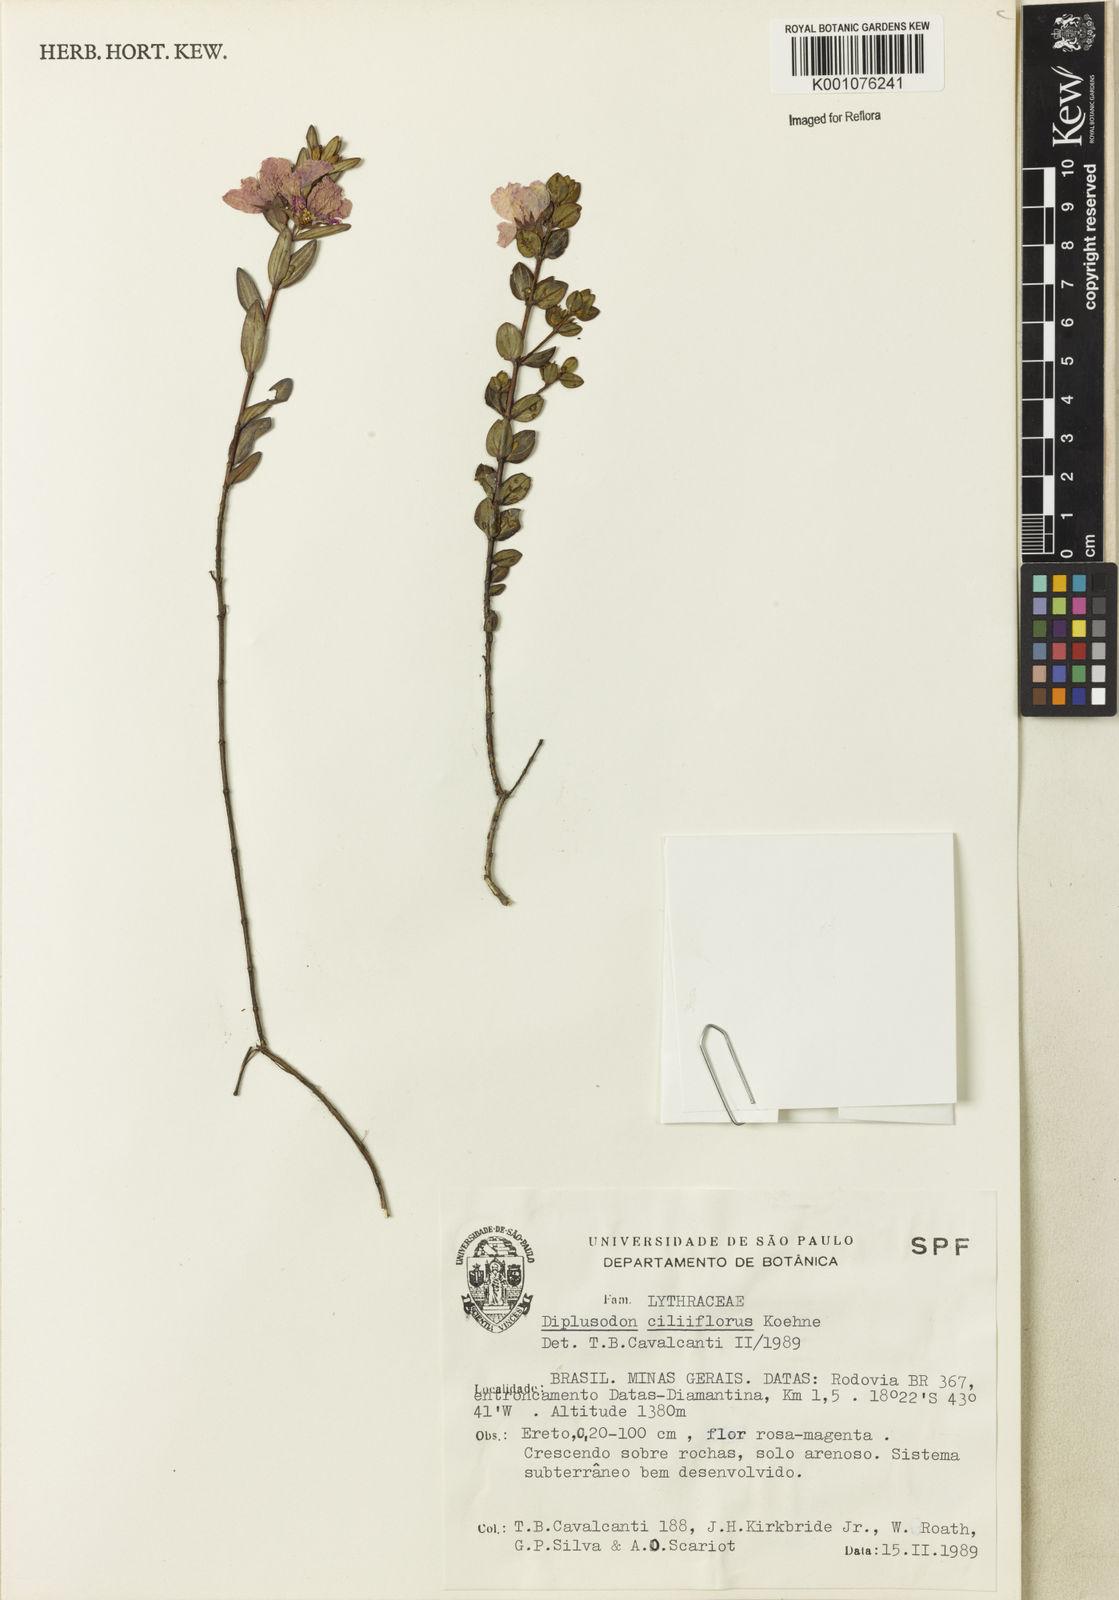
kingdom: Plantae
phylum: Tracheophyta
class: Magnoliopsida
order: Myrtales
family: Lythraceae
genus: Diplusodon
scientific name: Diplusodon ciliiflorus
